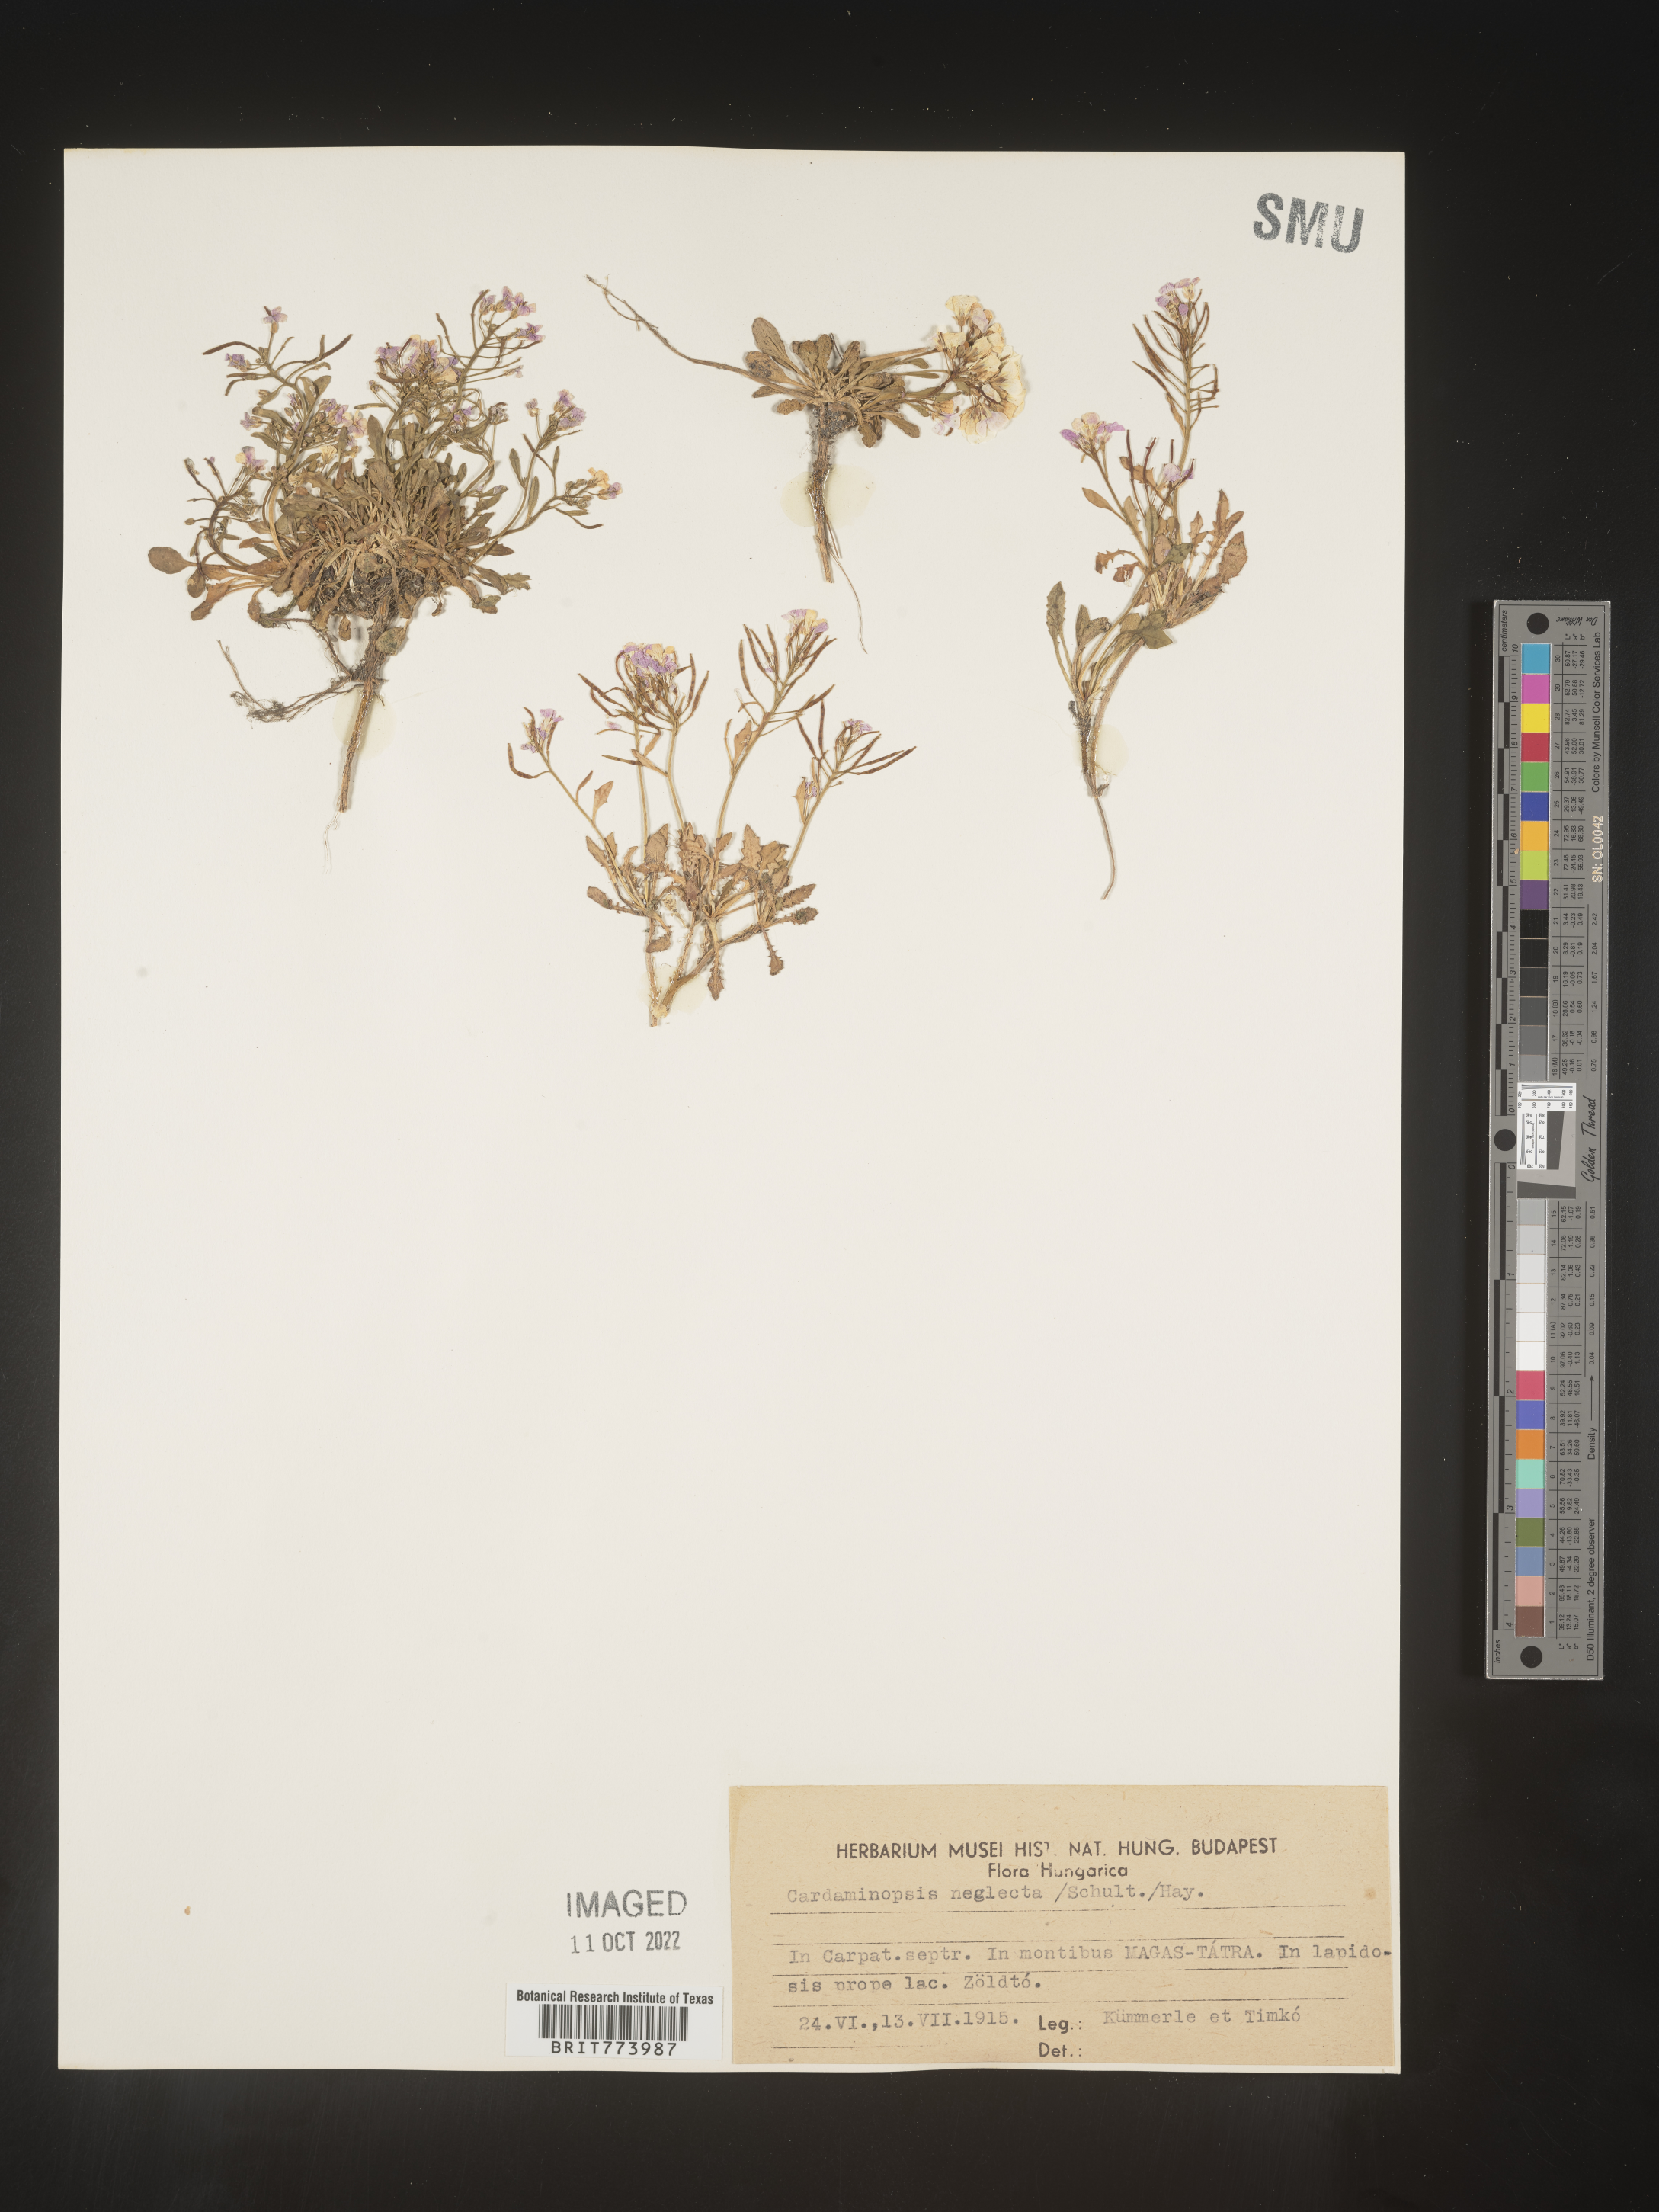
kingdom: Plantae
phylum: Tracheophyta
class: Magnoliopsida
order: Brassicales
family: Brassicaceae
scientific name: Brassicaceae
